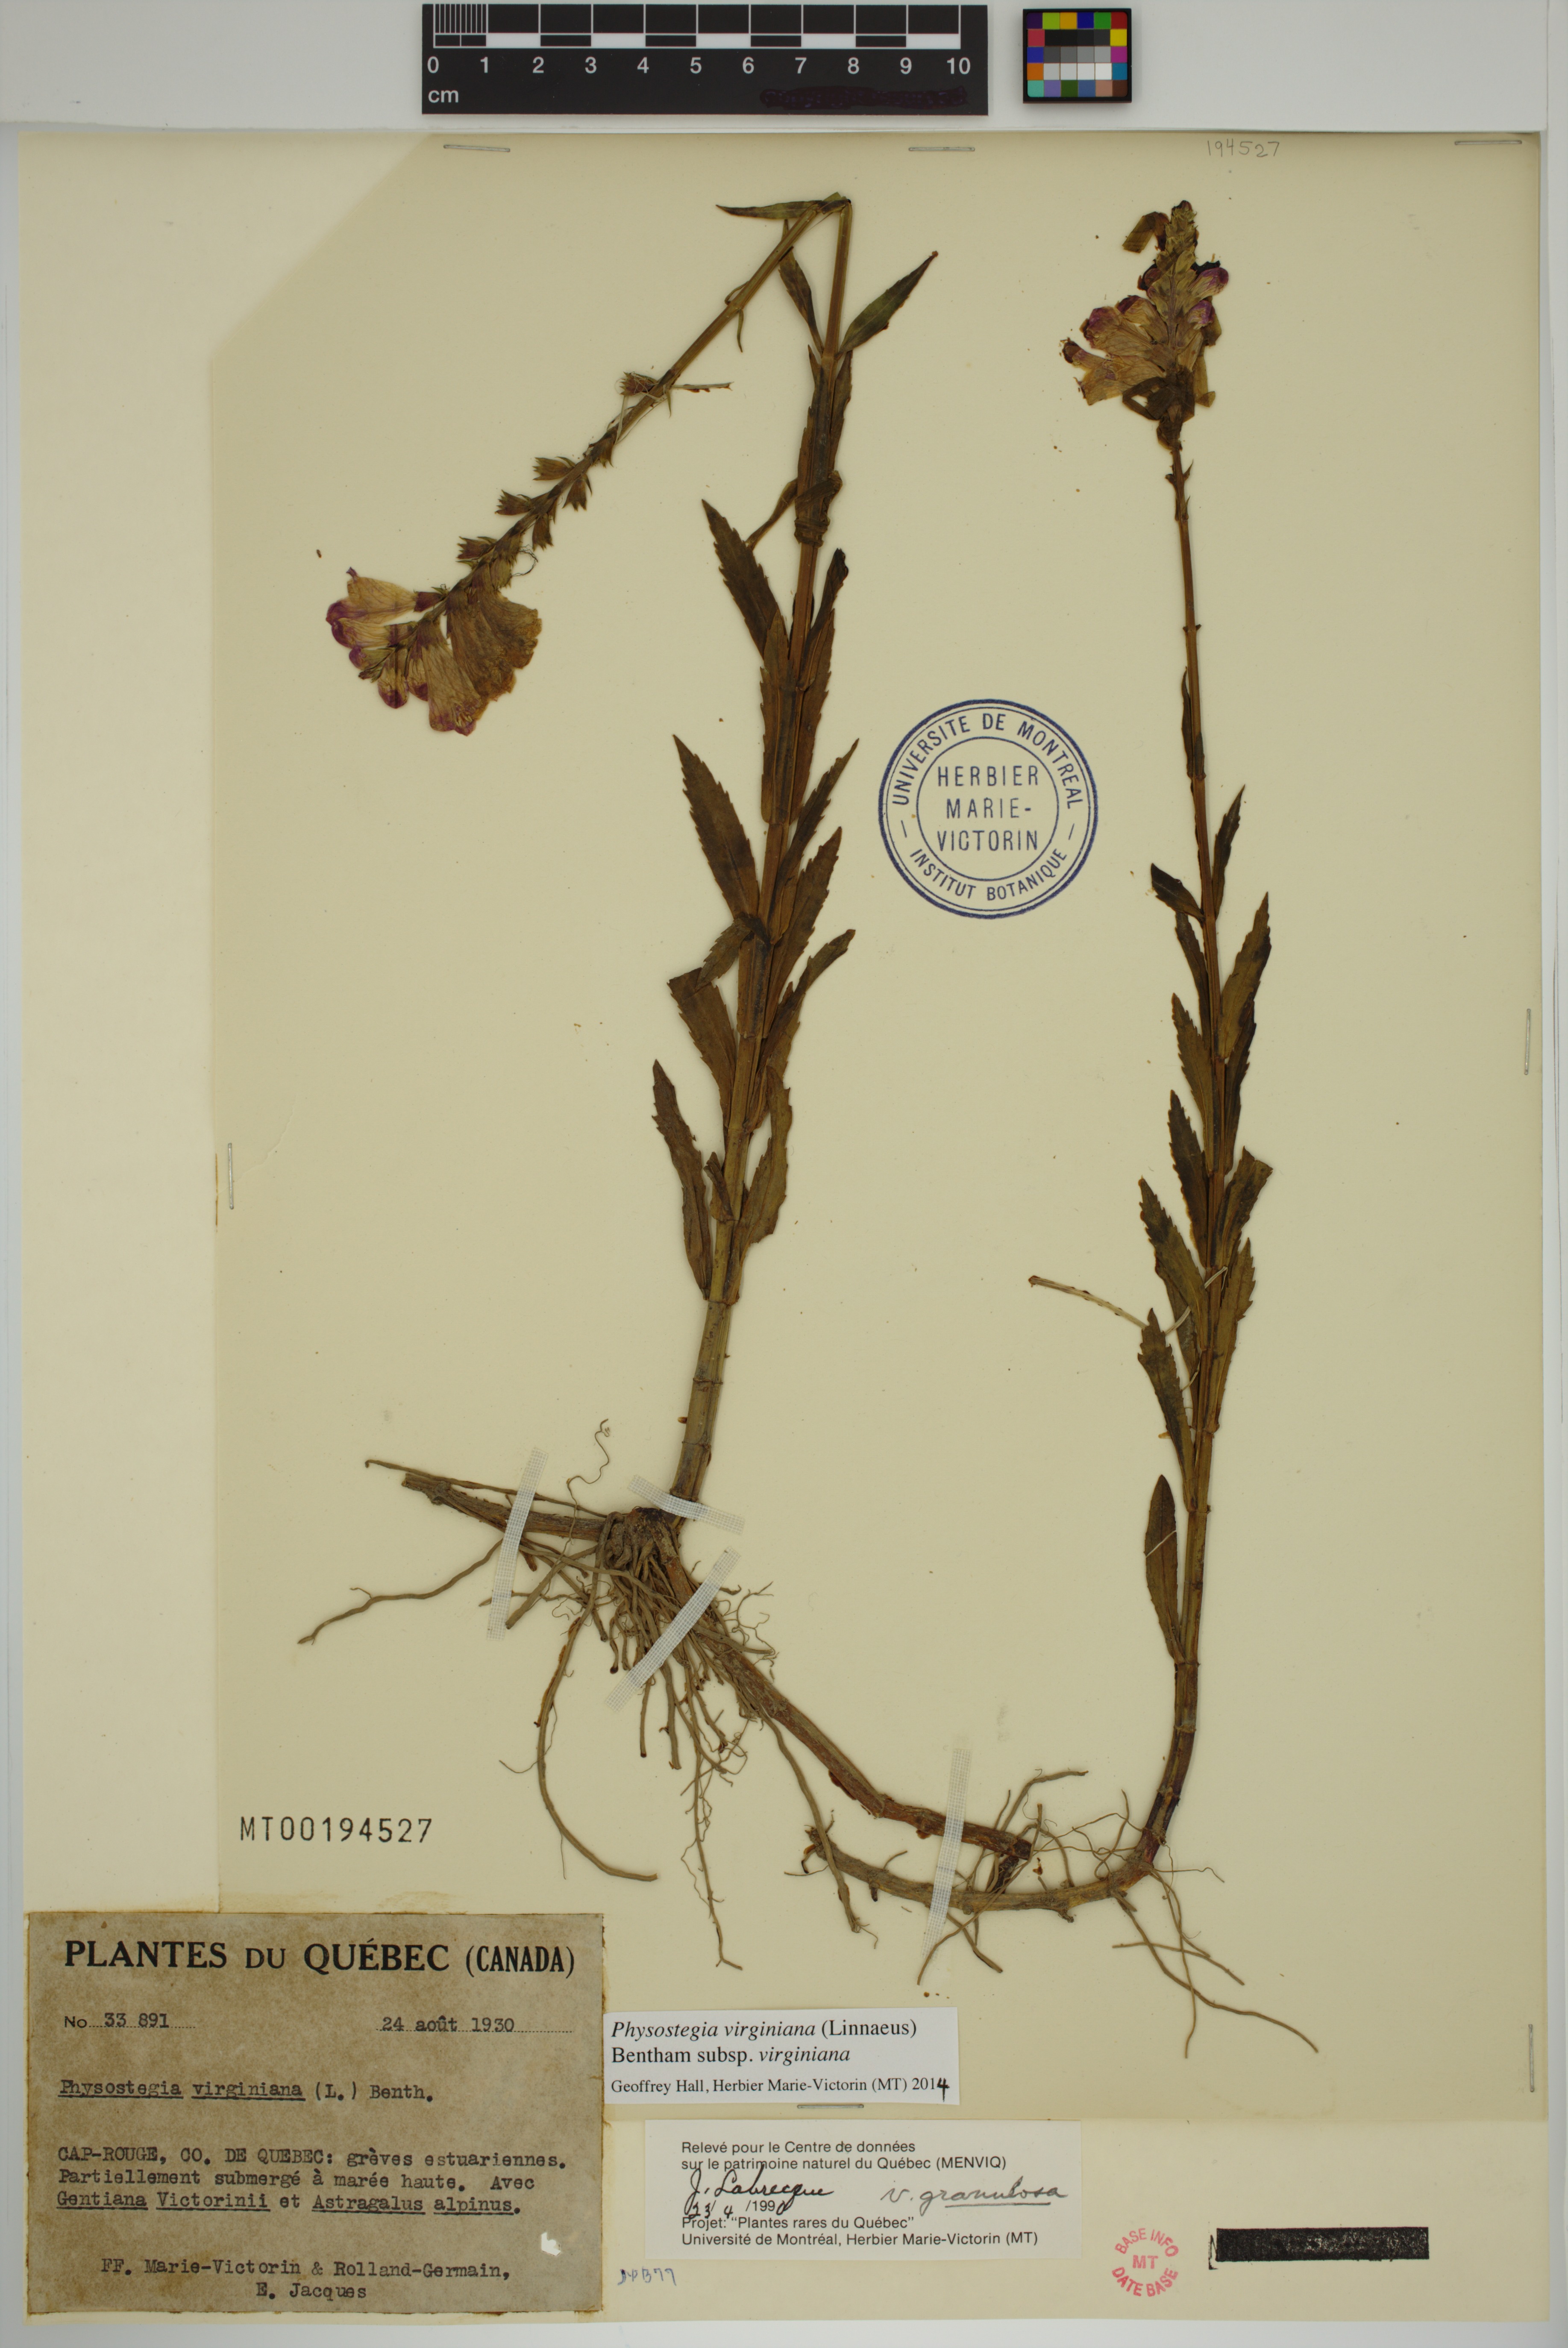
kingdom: Plantae
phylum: Tracheophyta
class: Magnoliopsida
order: Lamiales
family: Lamiaceae
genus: Physostegia
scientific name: Physostegia virginiana
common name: Obedient-plant
